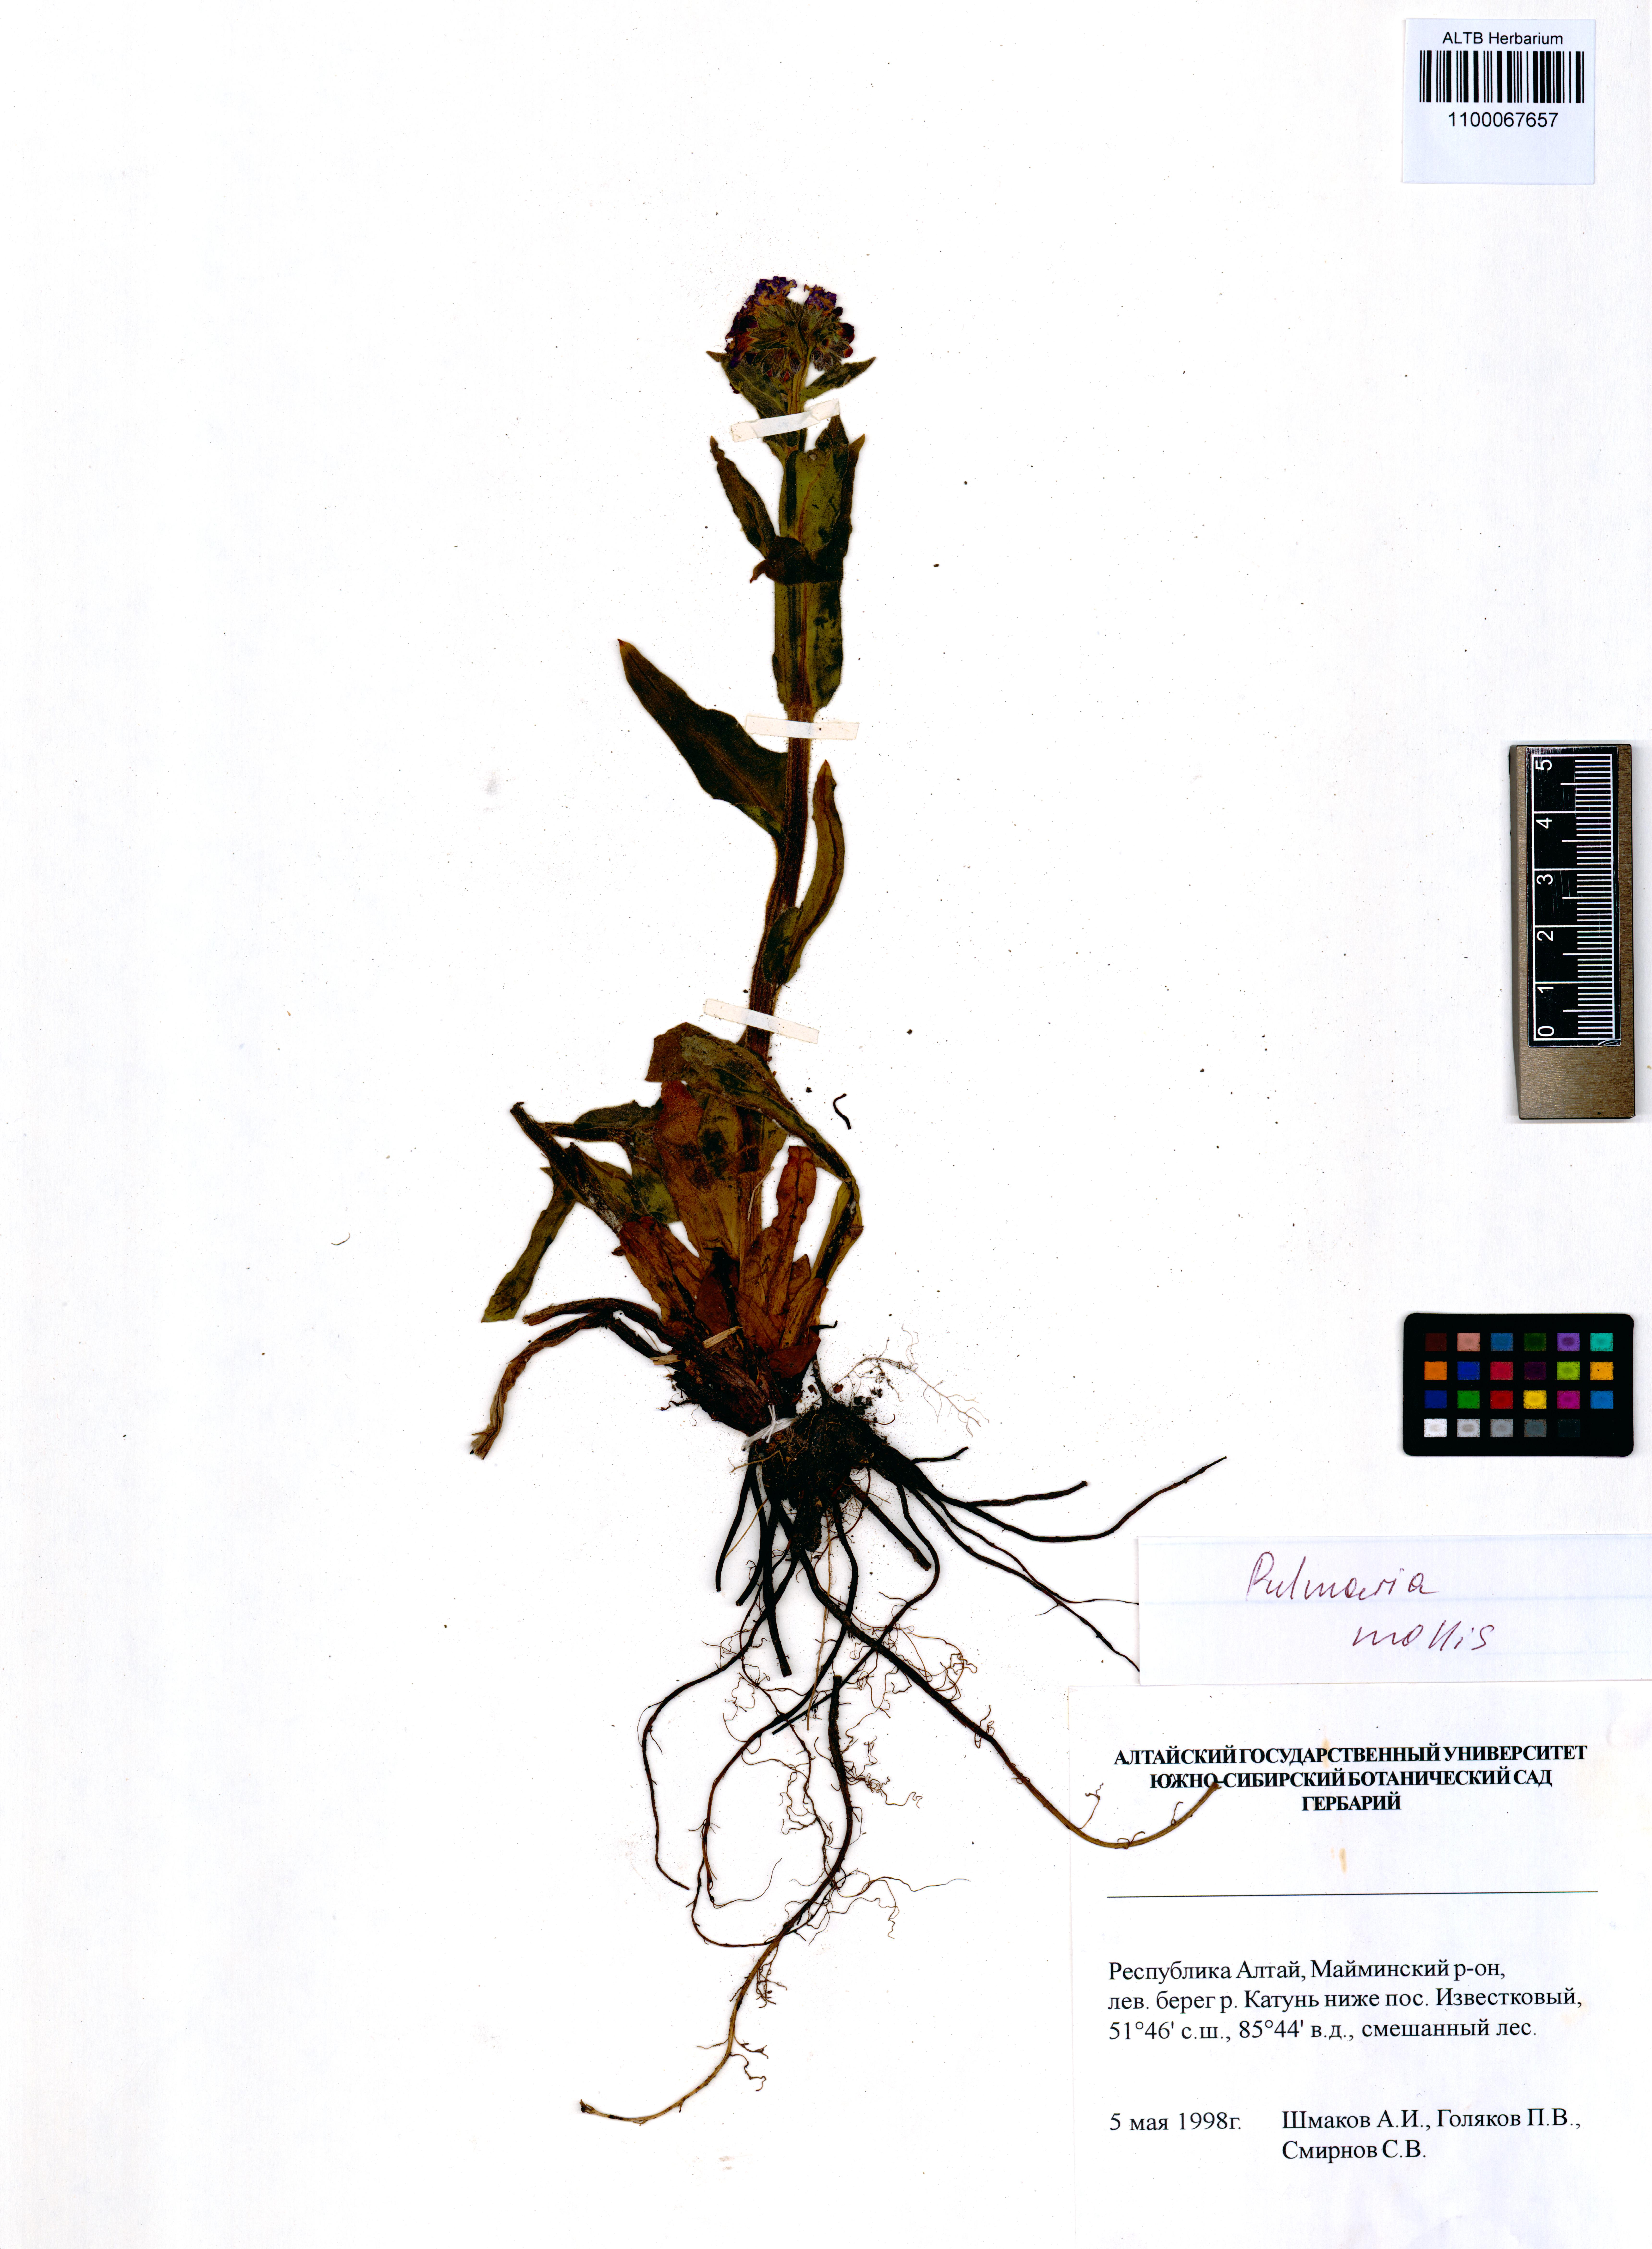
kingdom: Plantae
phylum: Tracheophyta
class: Magnoliopsida
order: Boraginales
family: Boraginaceae
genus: Pulmonaria
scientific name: Pulmonaria mollis
